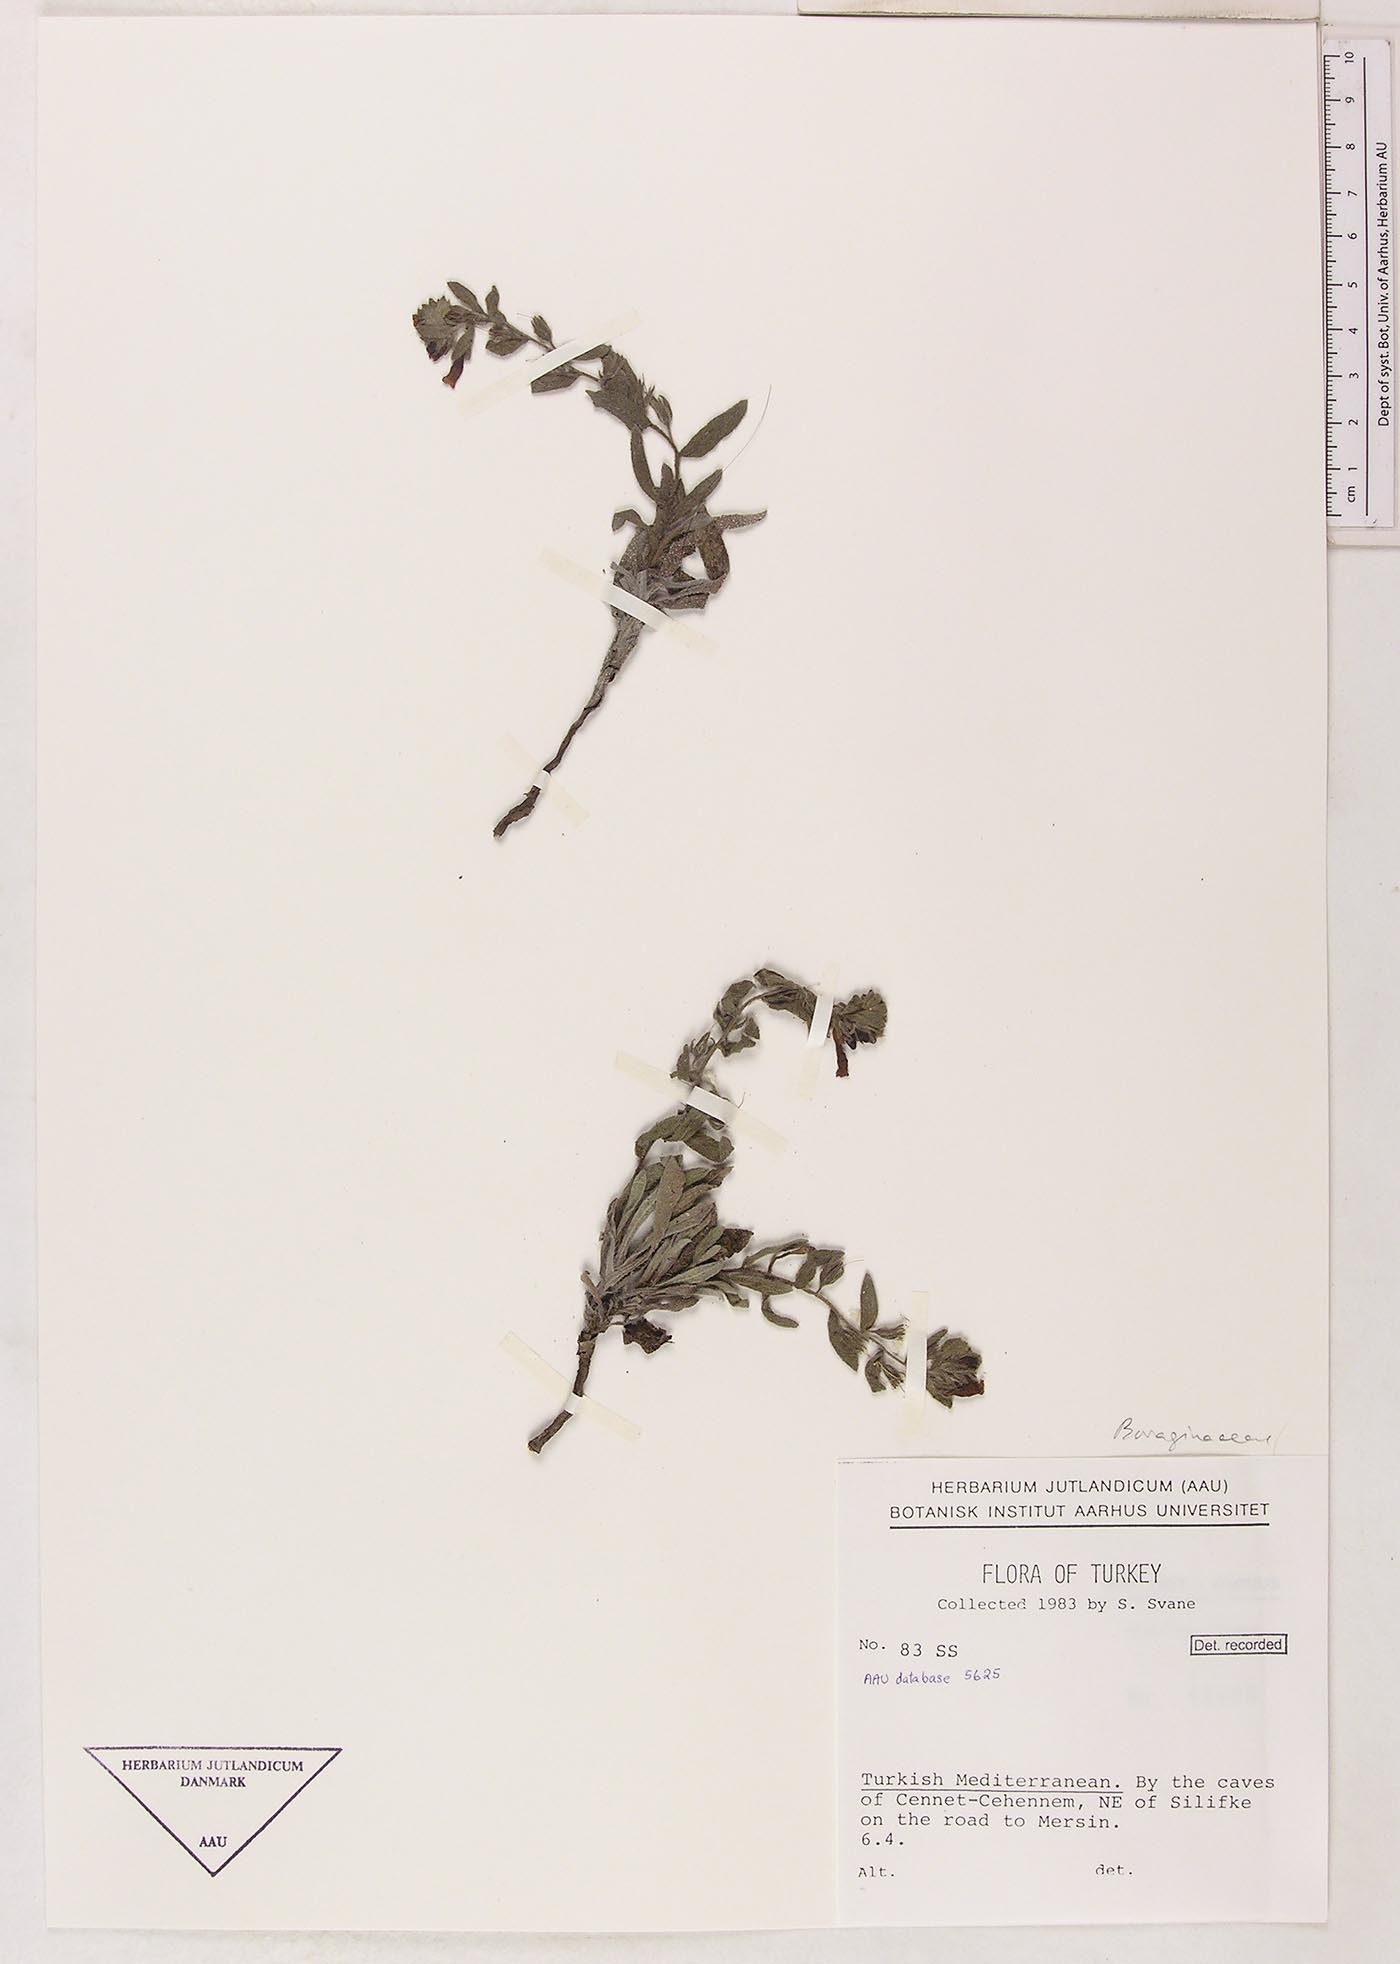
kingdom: Plantae
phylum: Tracheophyta
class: Magnoliopsida
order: Boraginales
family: Boraginaceae
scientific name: Boraginaceae
